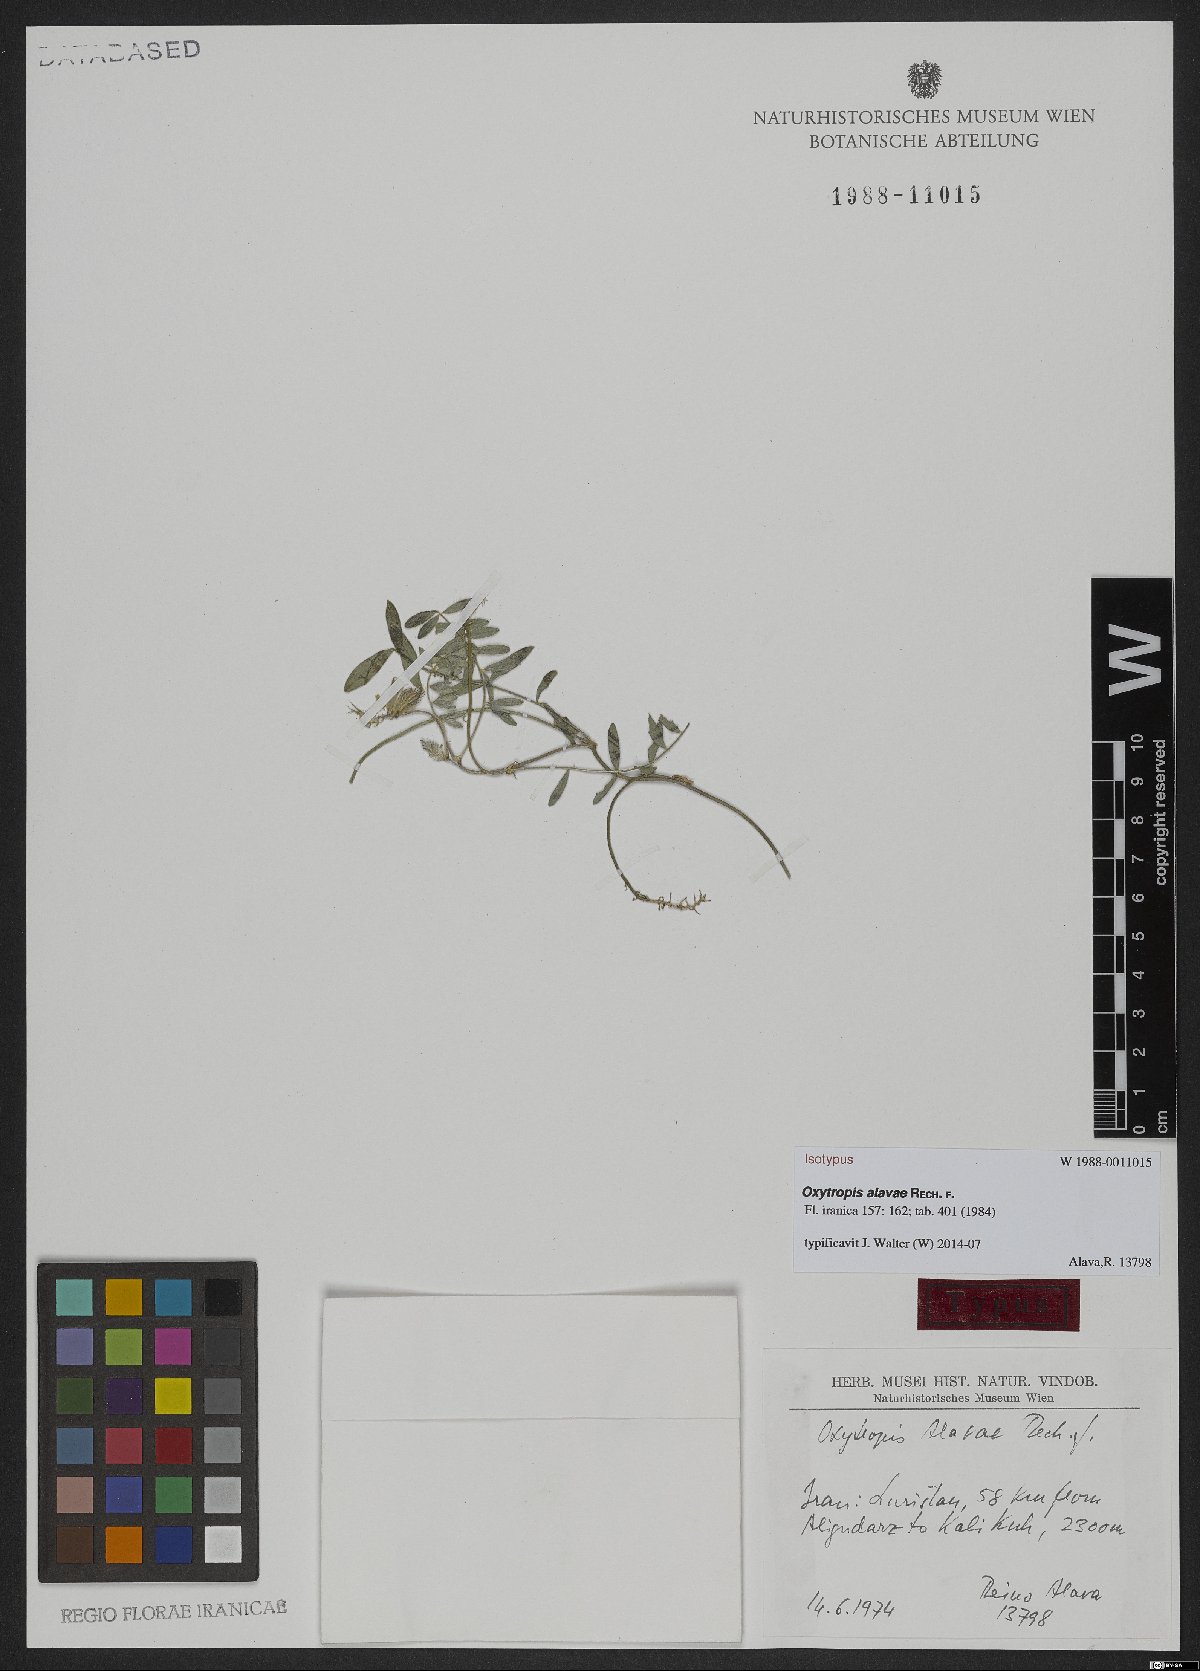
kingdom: Plantae
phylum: Tracheophyta
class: Magnoliopsida
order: Fabales
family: Fabaceae
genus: Astragalus
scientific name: Astragalus longirostratus
